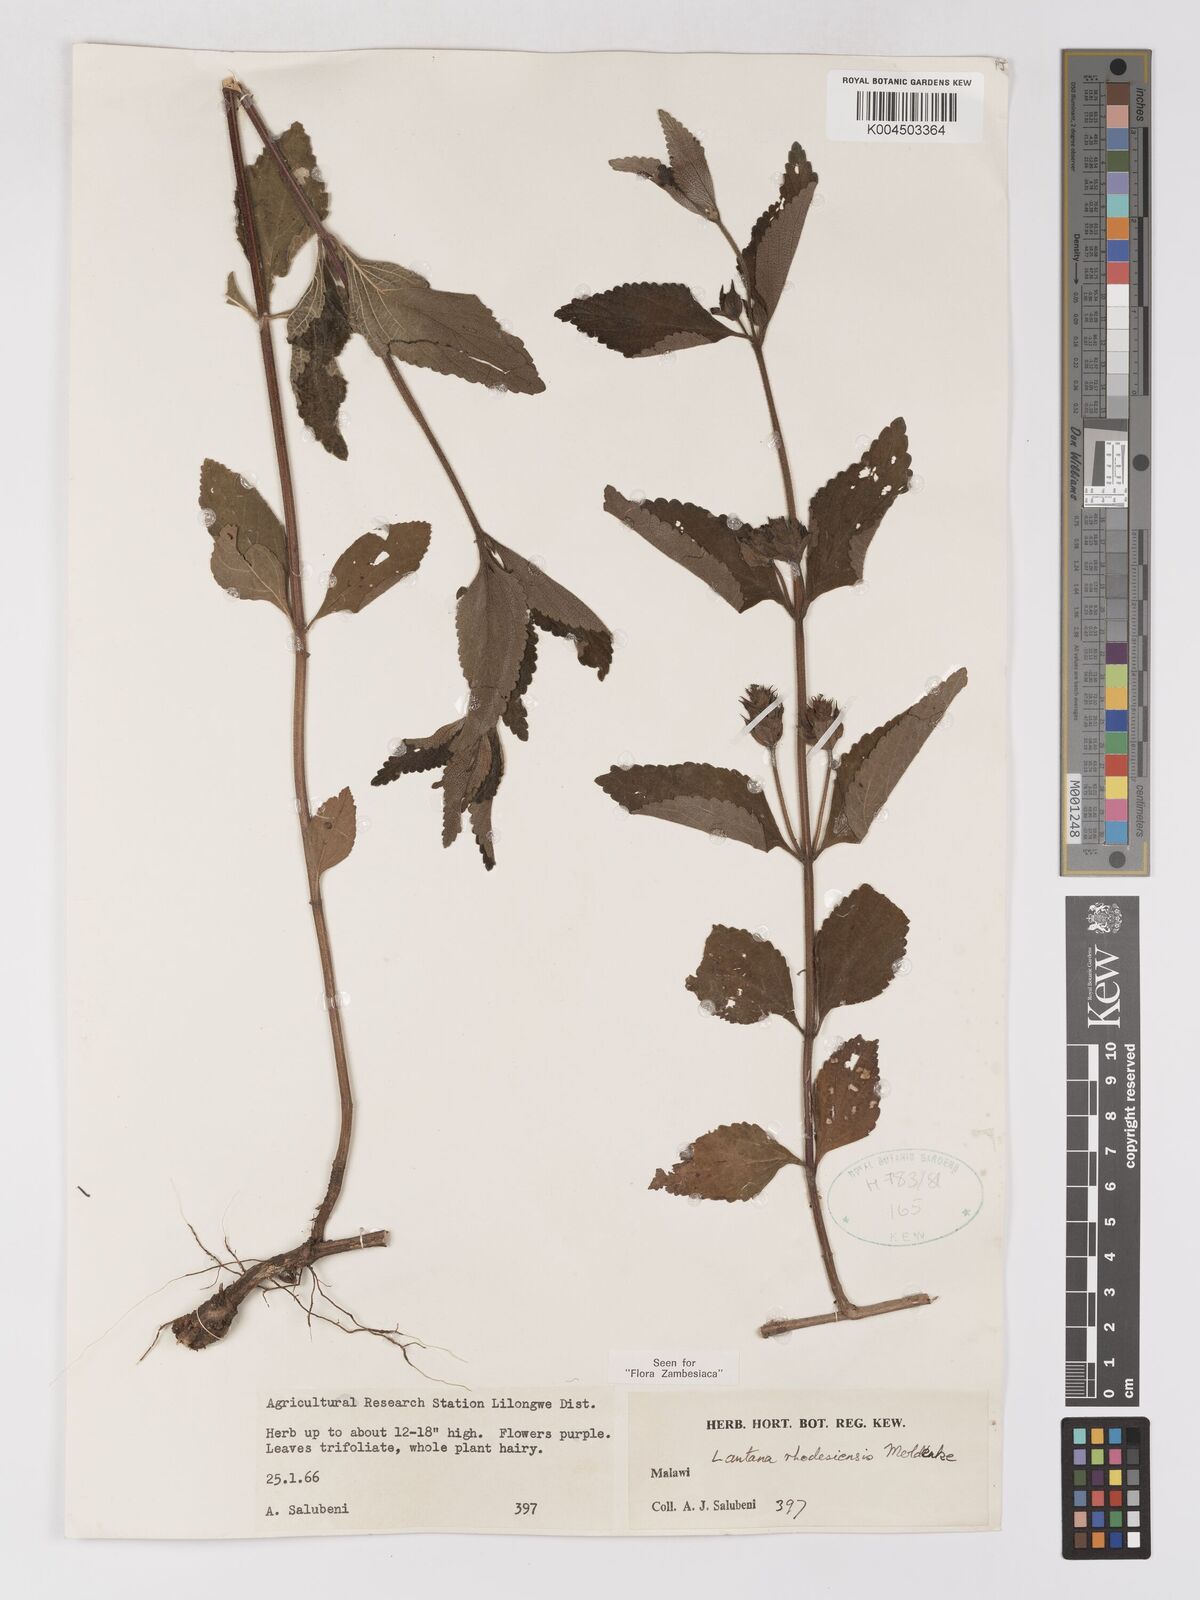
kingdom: Plantae
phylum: Tracheophyta
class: Magnoliopsida
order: Lamiales
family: Verbenaceae
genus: Lantana
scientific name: Lantana ukambensis
